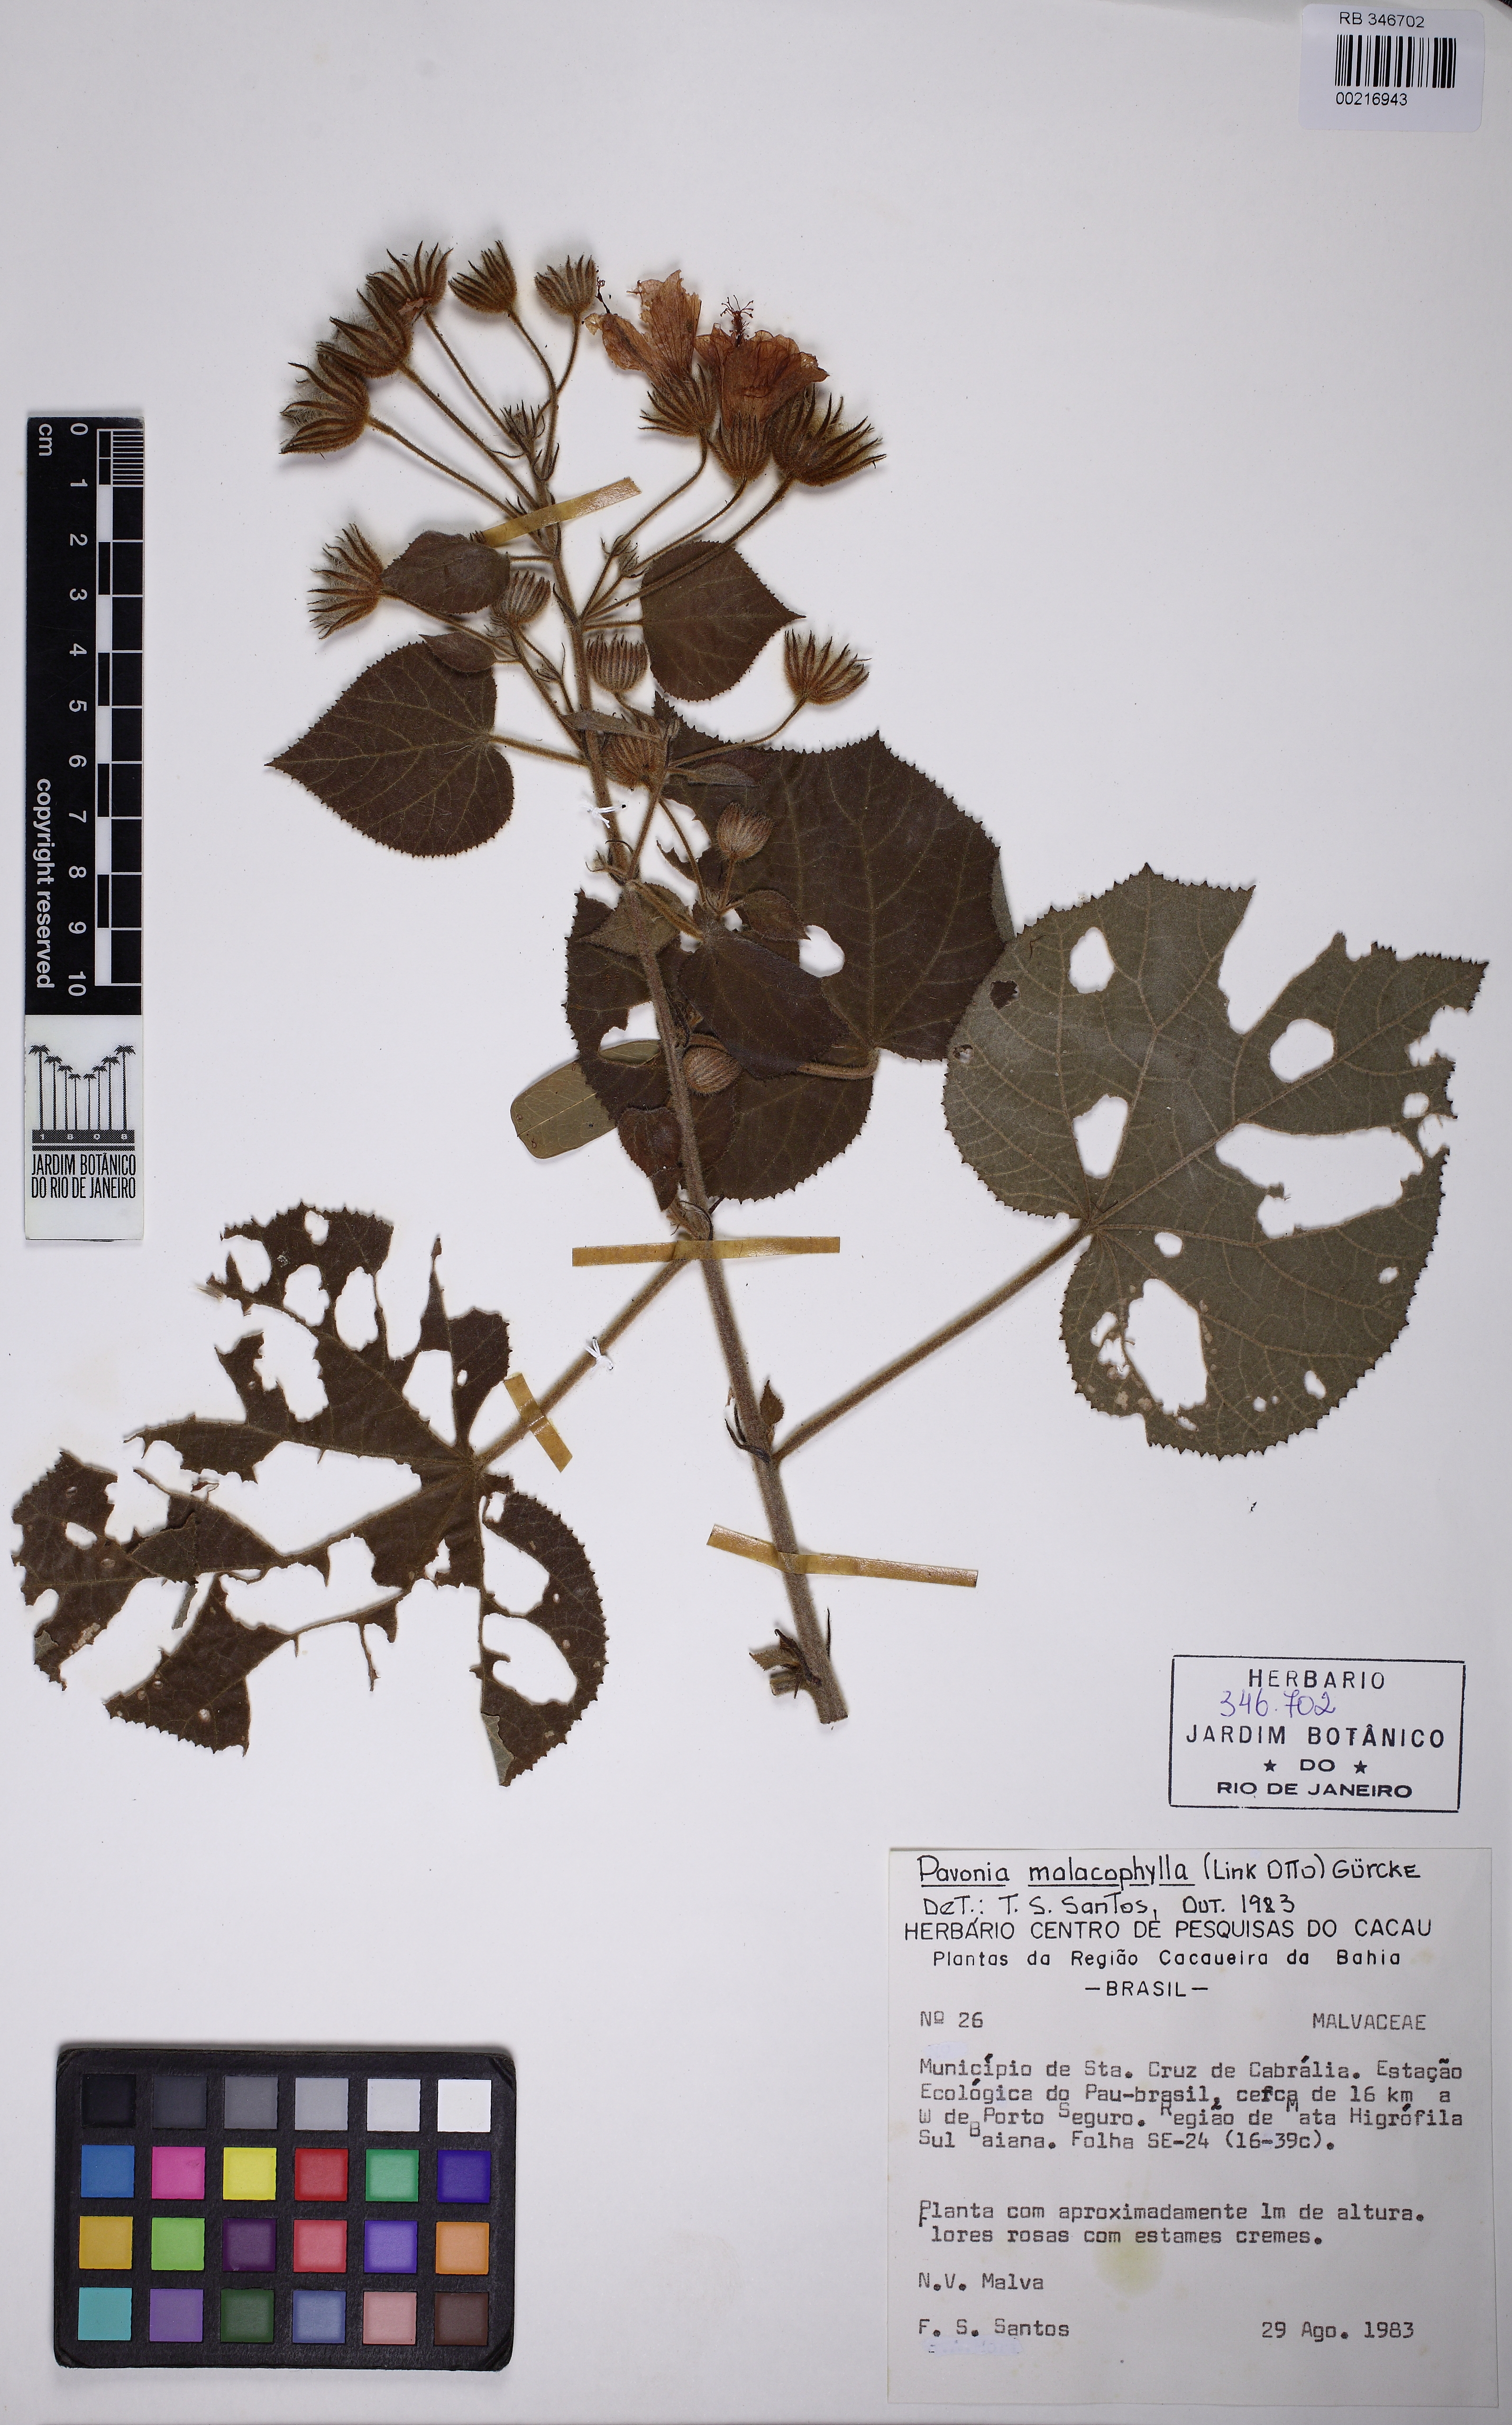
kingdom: Plantae
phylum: Tracheophyta
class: Magnoliopsida
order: Malvales
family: Malvaceae
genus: Pavonia
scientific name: Pavonia malacophylla
